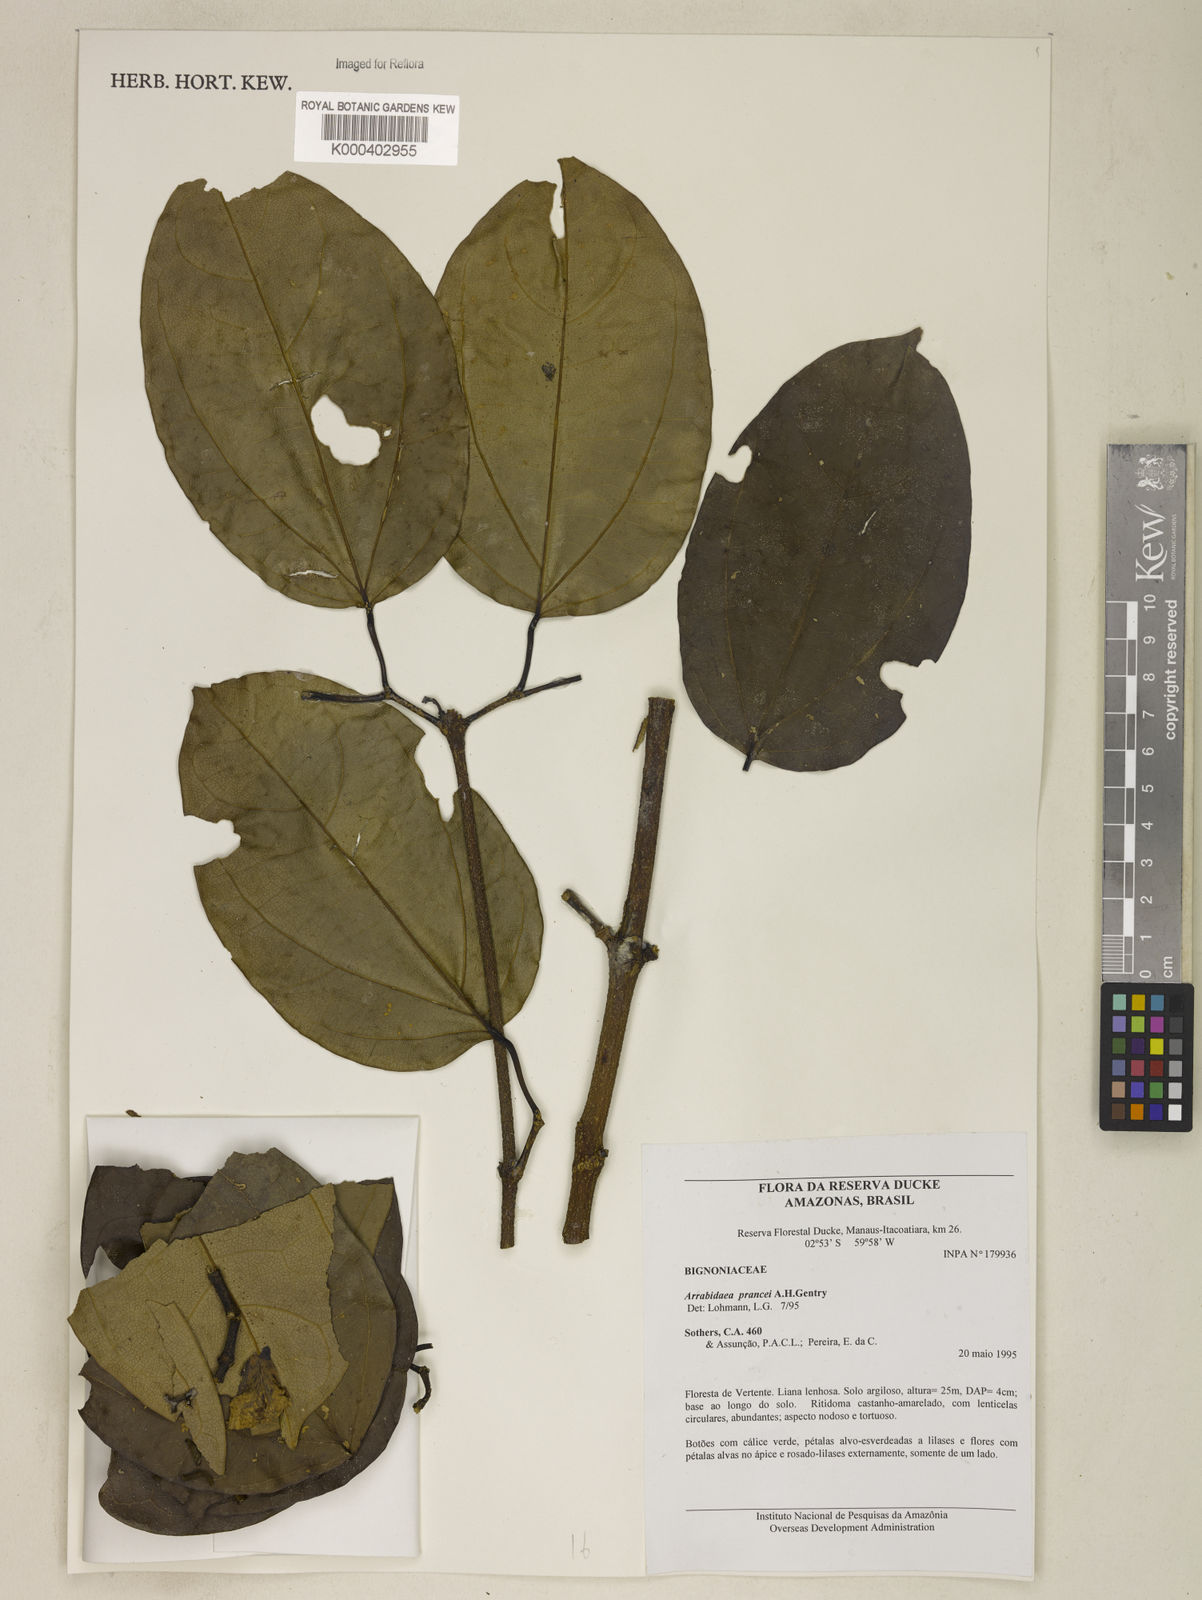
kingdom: Plantae
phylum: Tracheophyta
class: Magnoliopsida
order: Lamiales
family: Bignoniaceae
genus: Fridericia
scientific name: Fridericia prancei
